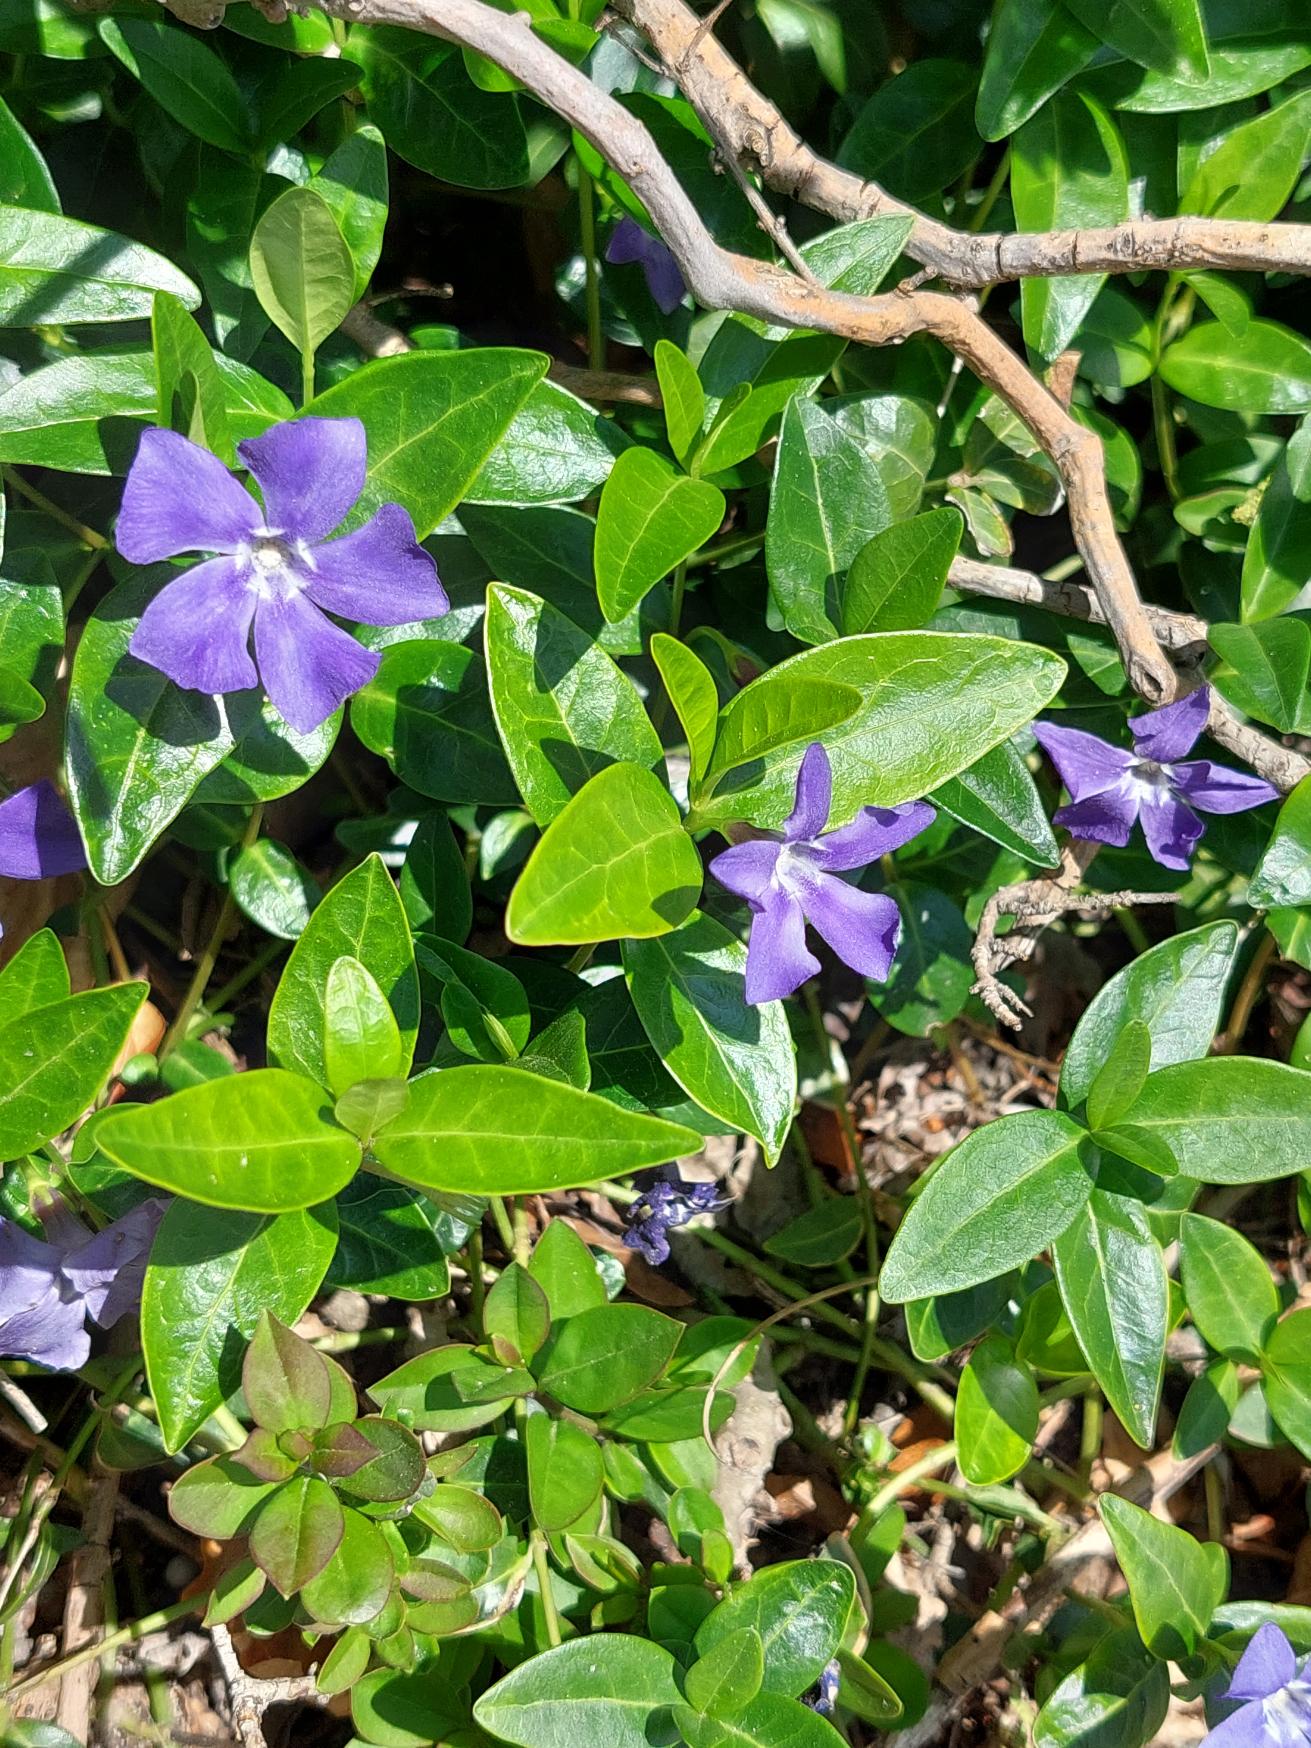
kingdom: Plantae
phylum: Tracheophyta
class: Magnoliopsida
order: Gentianales
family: Apocynaceae
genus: Vinca
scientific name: Vinca minor
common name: Liden singrøn
